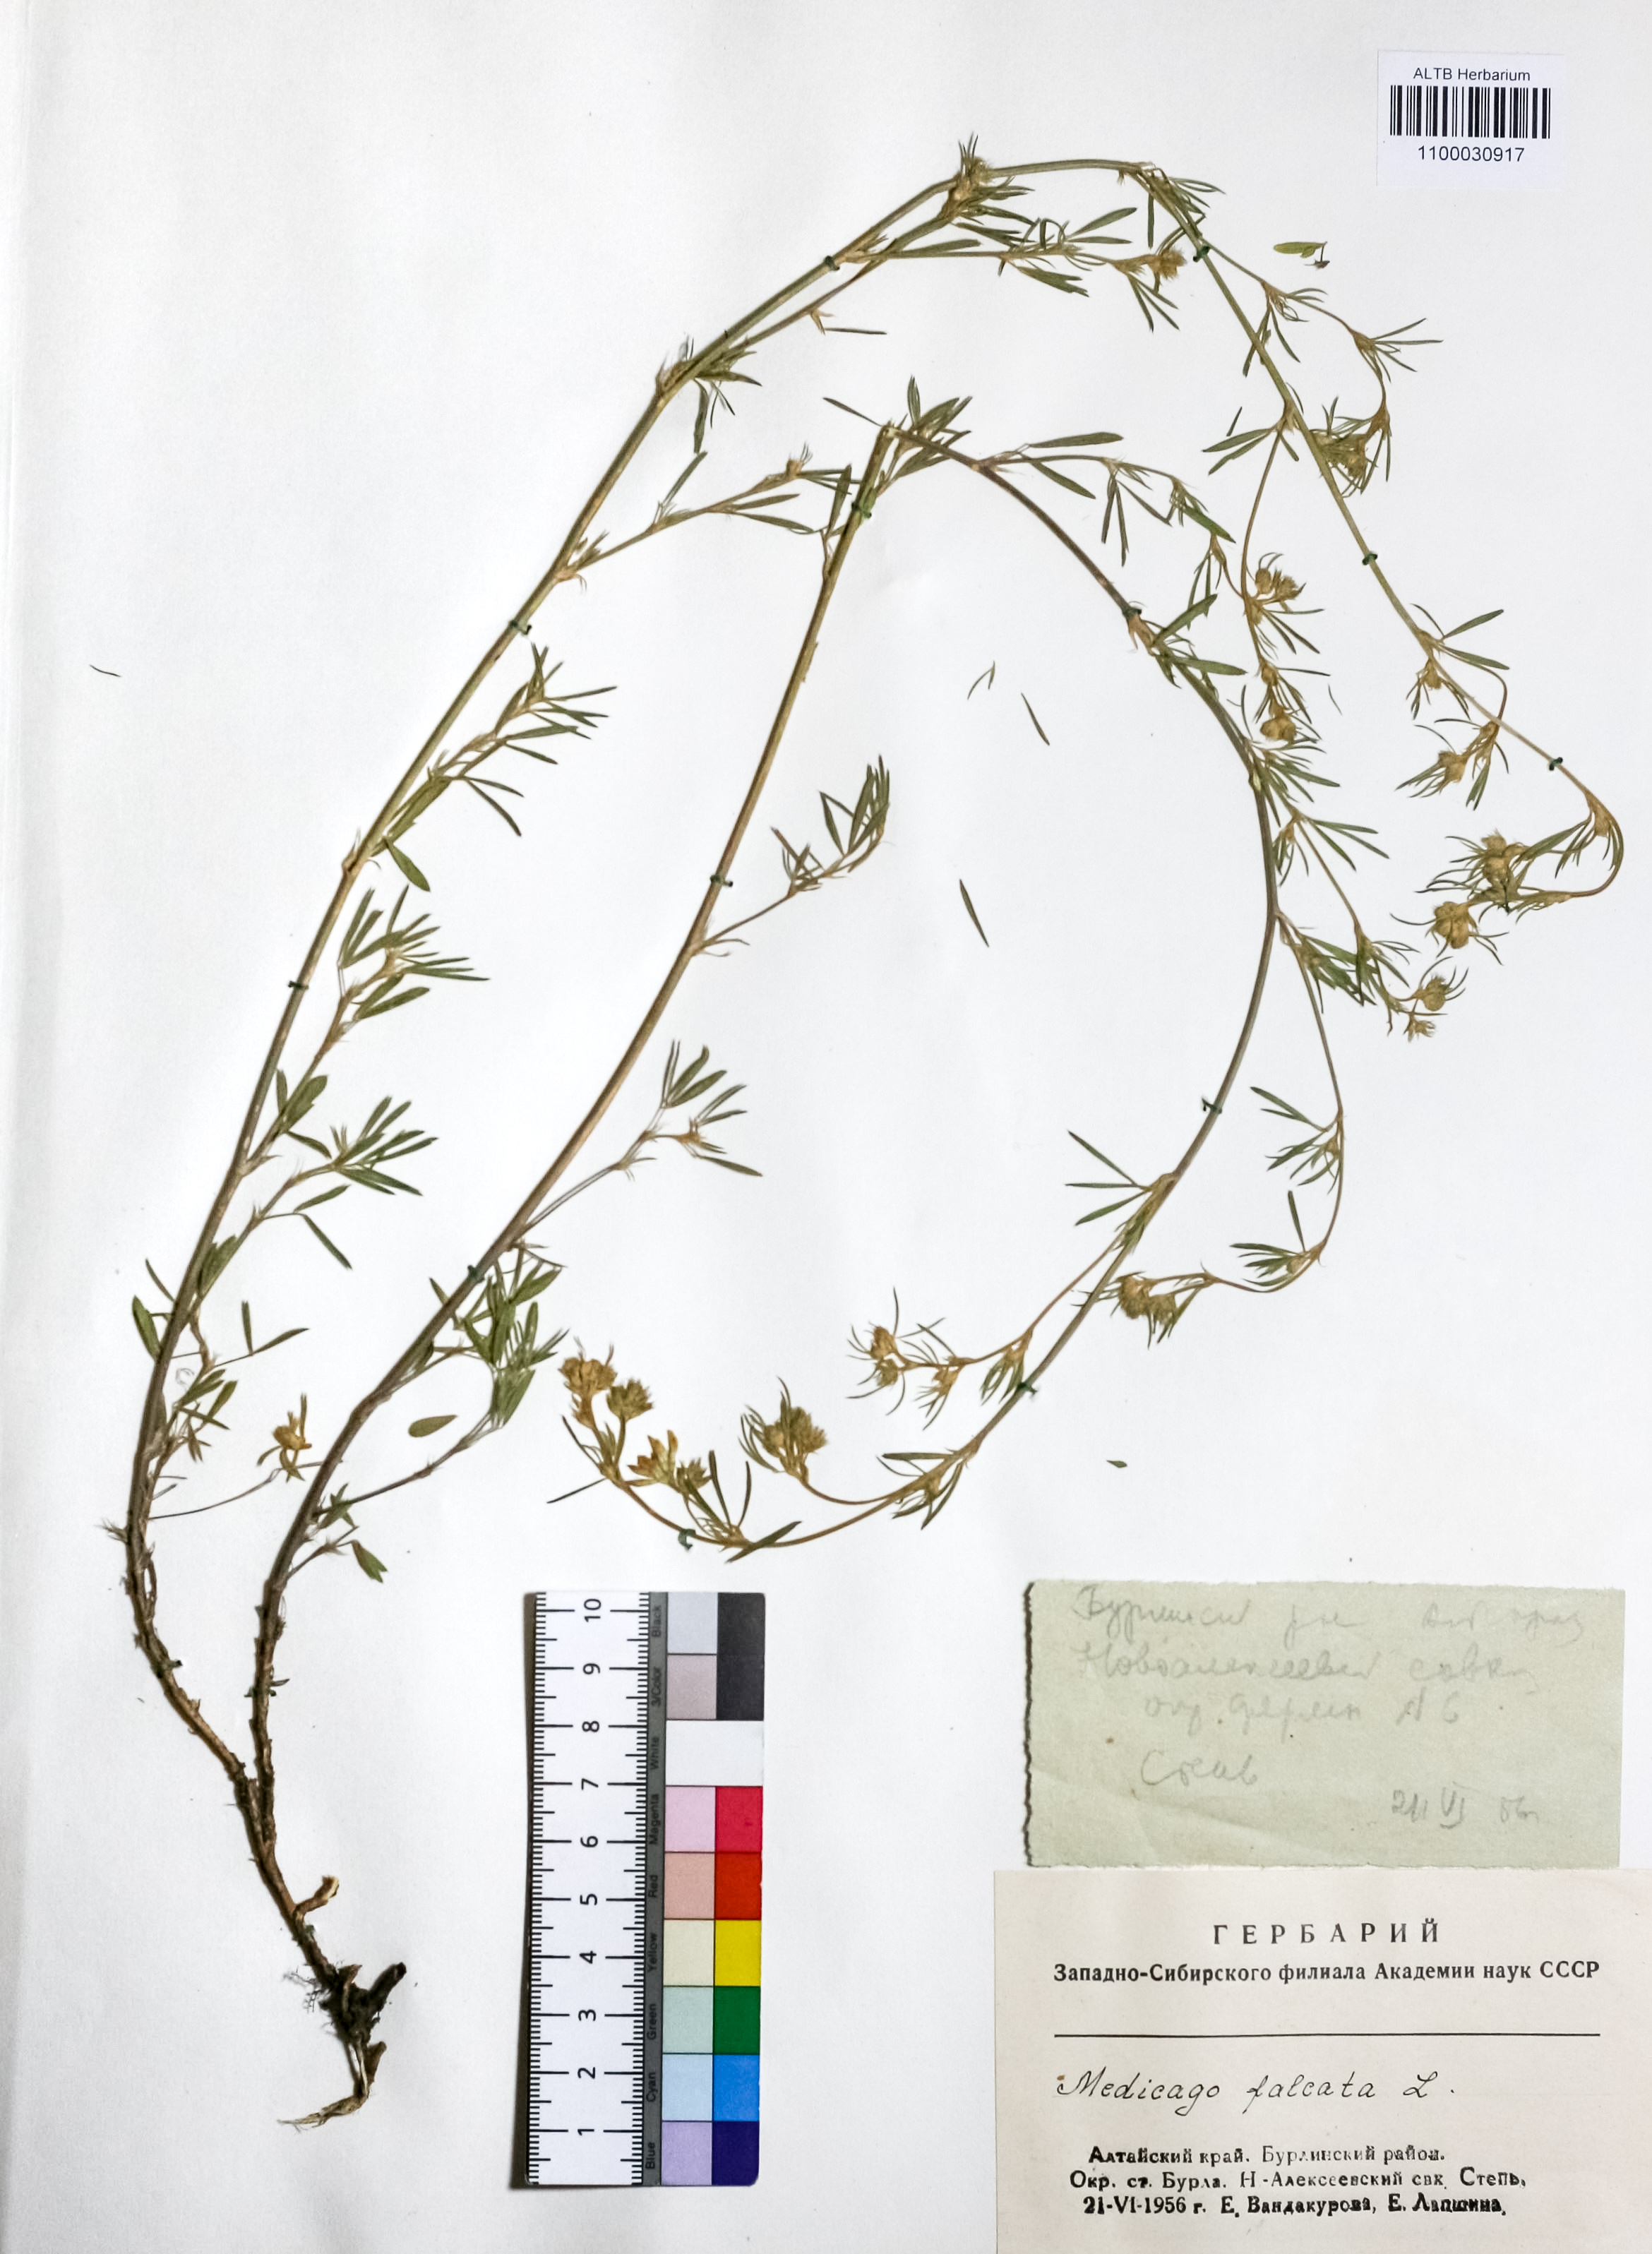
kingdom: Plantae
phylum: Tracheophyta
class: Magnoliopsida
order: Fabales
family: Fabaceae
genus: Medicago
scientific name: Medicago falcata
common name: Sickle medick
